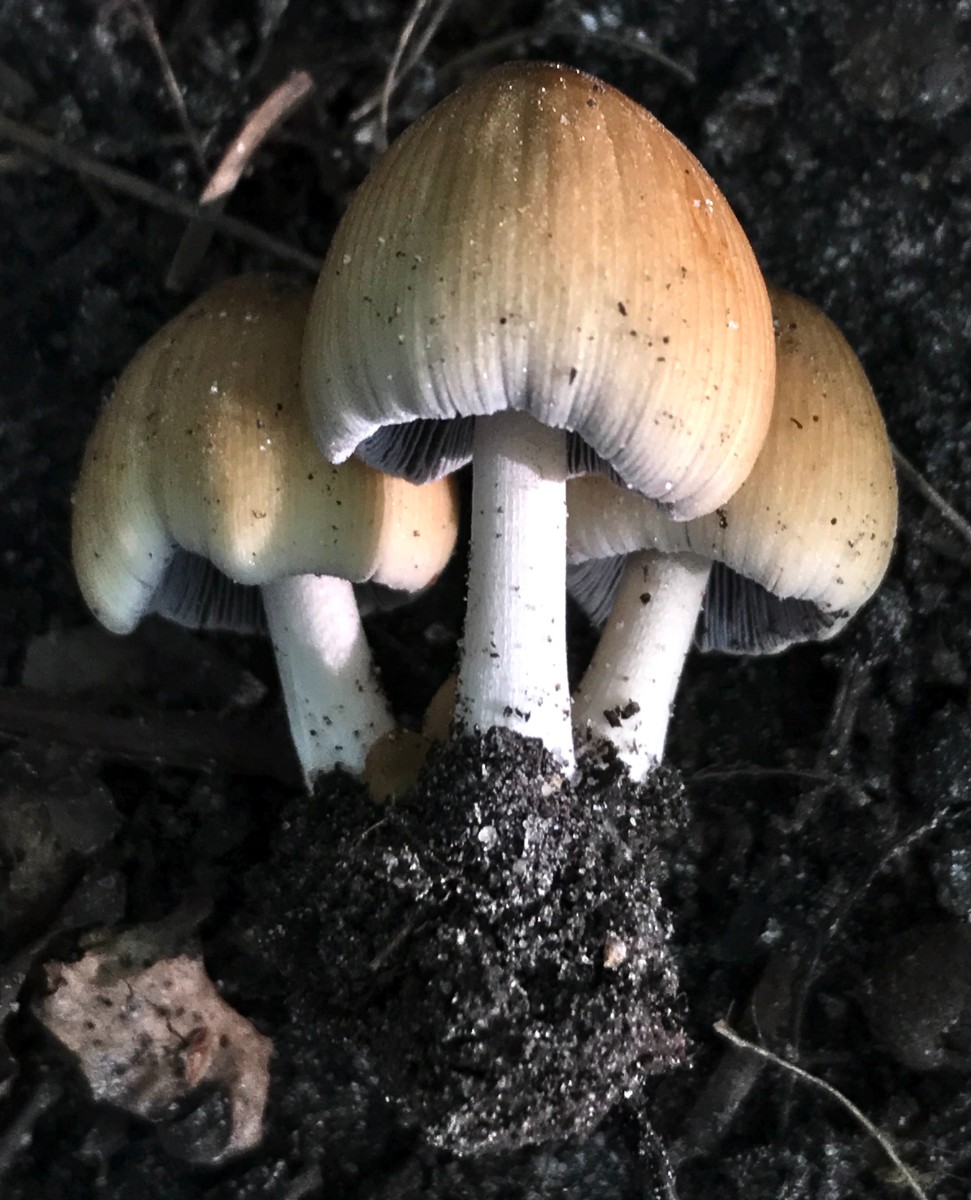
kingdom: Fungi
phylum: Basidiomycota
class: Agaricomycetes
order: Agaricales
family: Psathyrellaceae
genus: Coprinellus
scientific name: Coprinellus micaceus
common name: glimmer-blækhat
